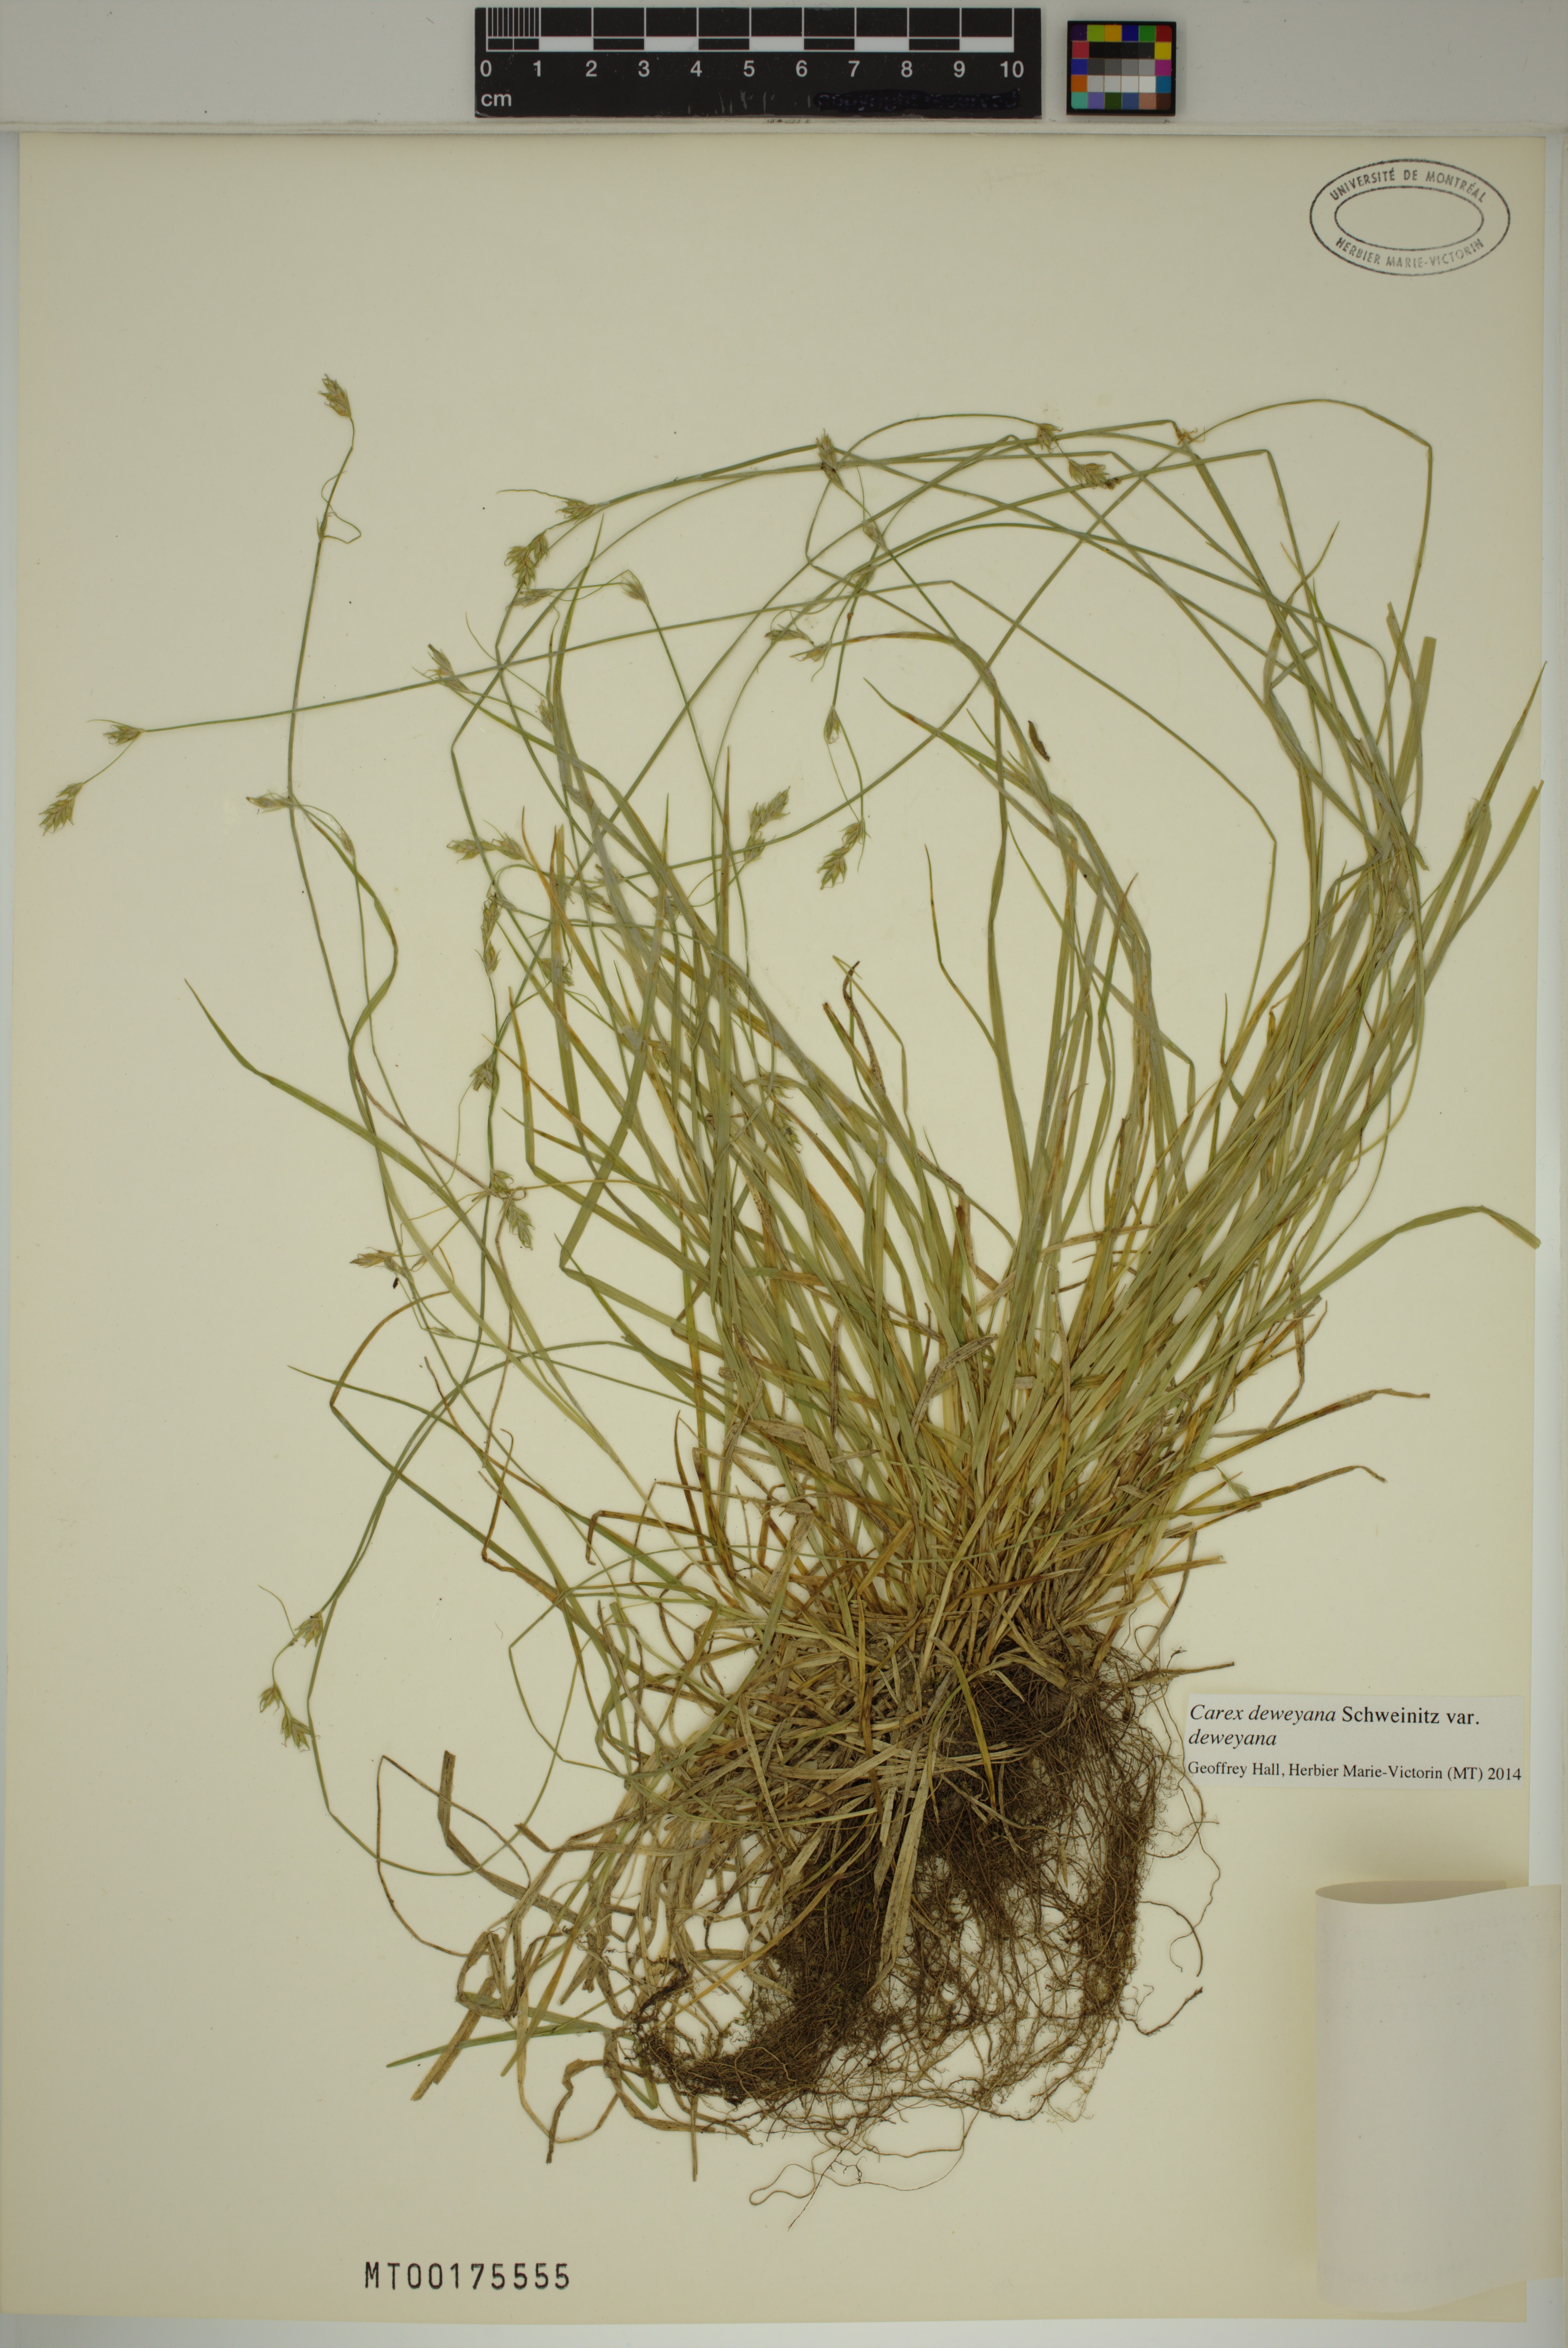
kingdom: Plantae
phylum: Tracheophyta
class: Liliopsida
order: Poales
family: Cyperaceae
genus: Carex
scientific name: Carex deweyana
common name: Dewey's sedge
